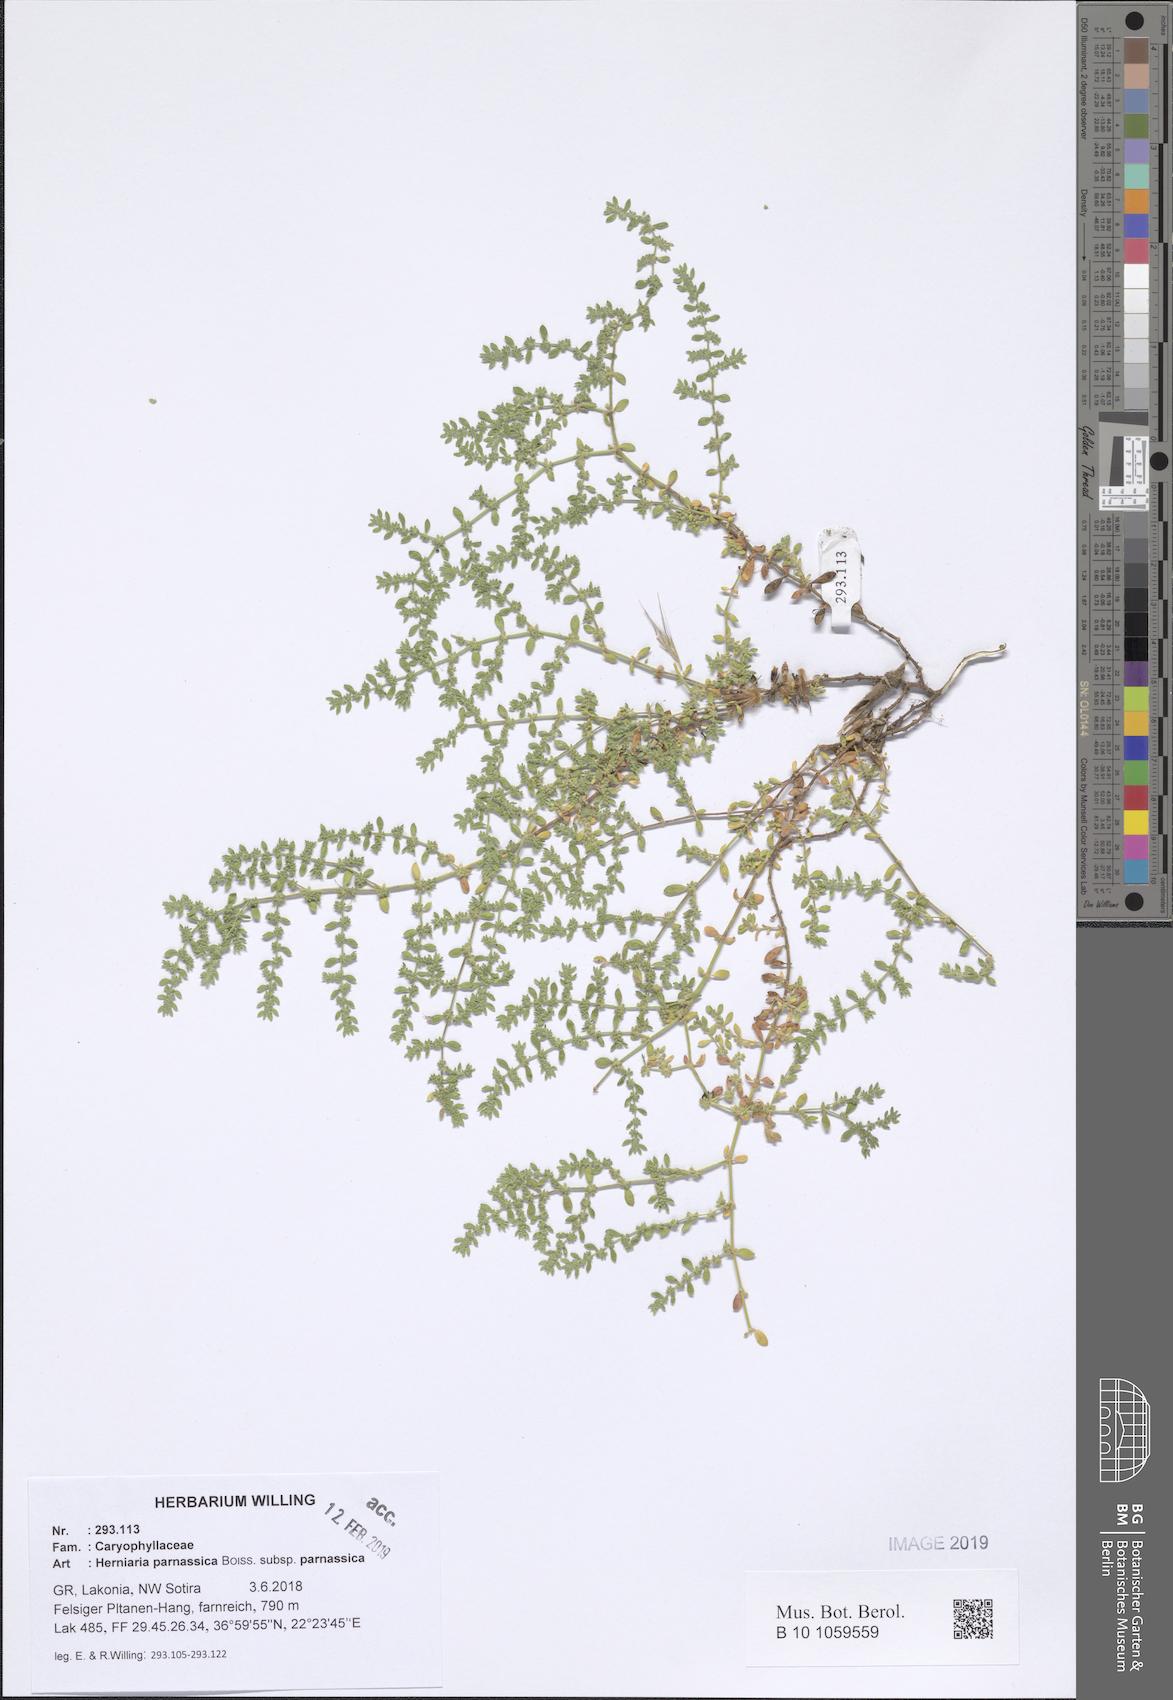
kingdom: Plantae
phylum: Tracheophyta
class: Magnoliopsida
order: Caryophyllales
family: Caryophyllaceae
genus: Herniaria
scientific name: Herniaria parnassica
